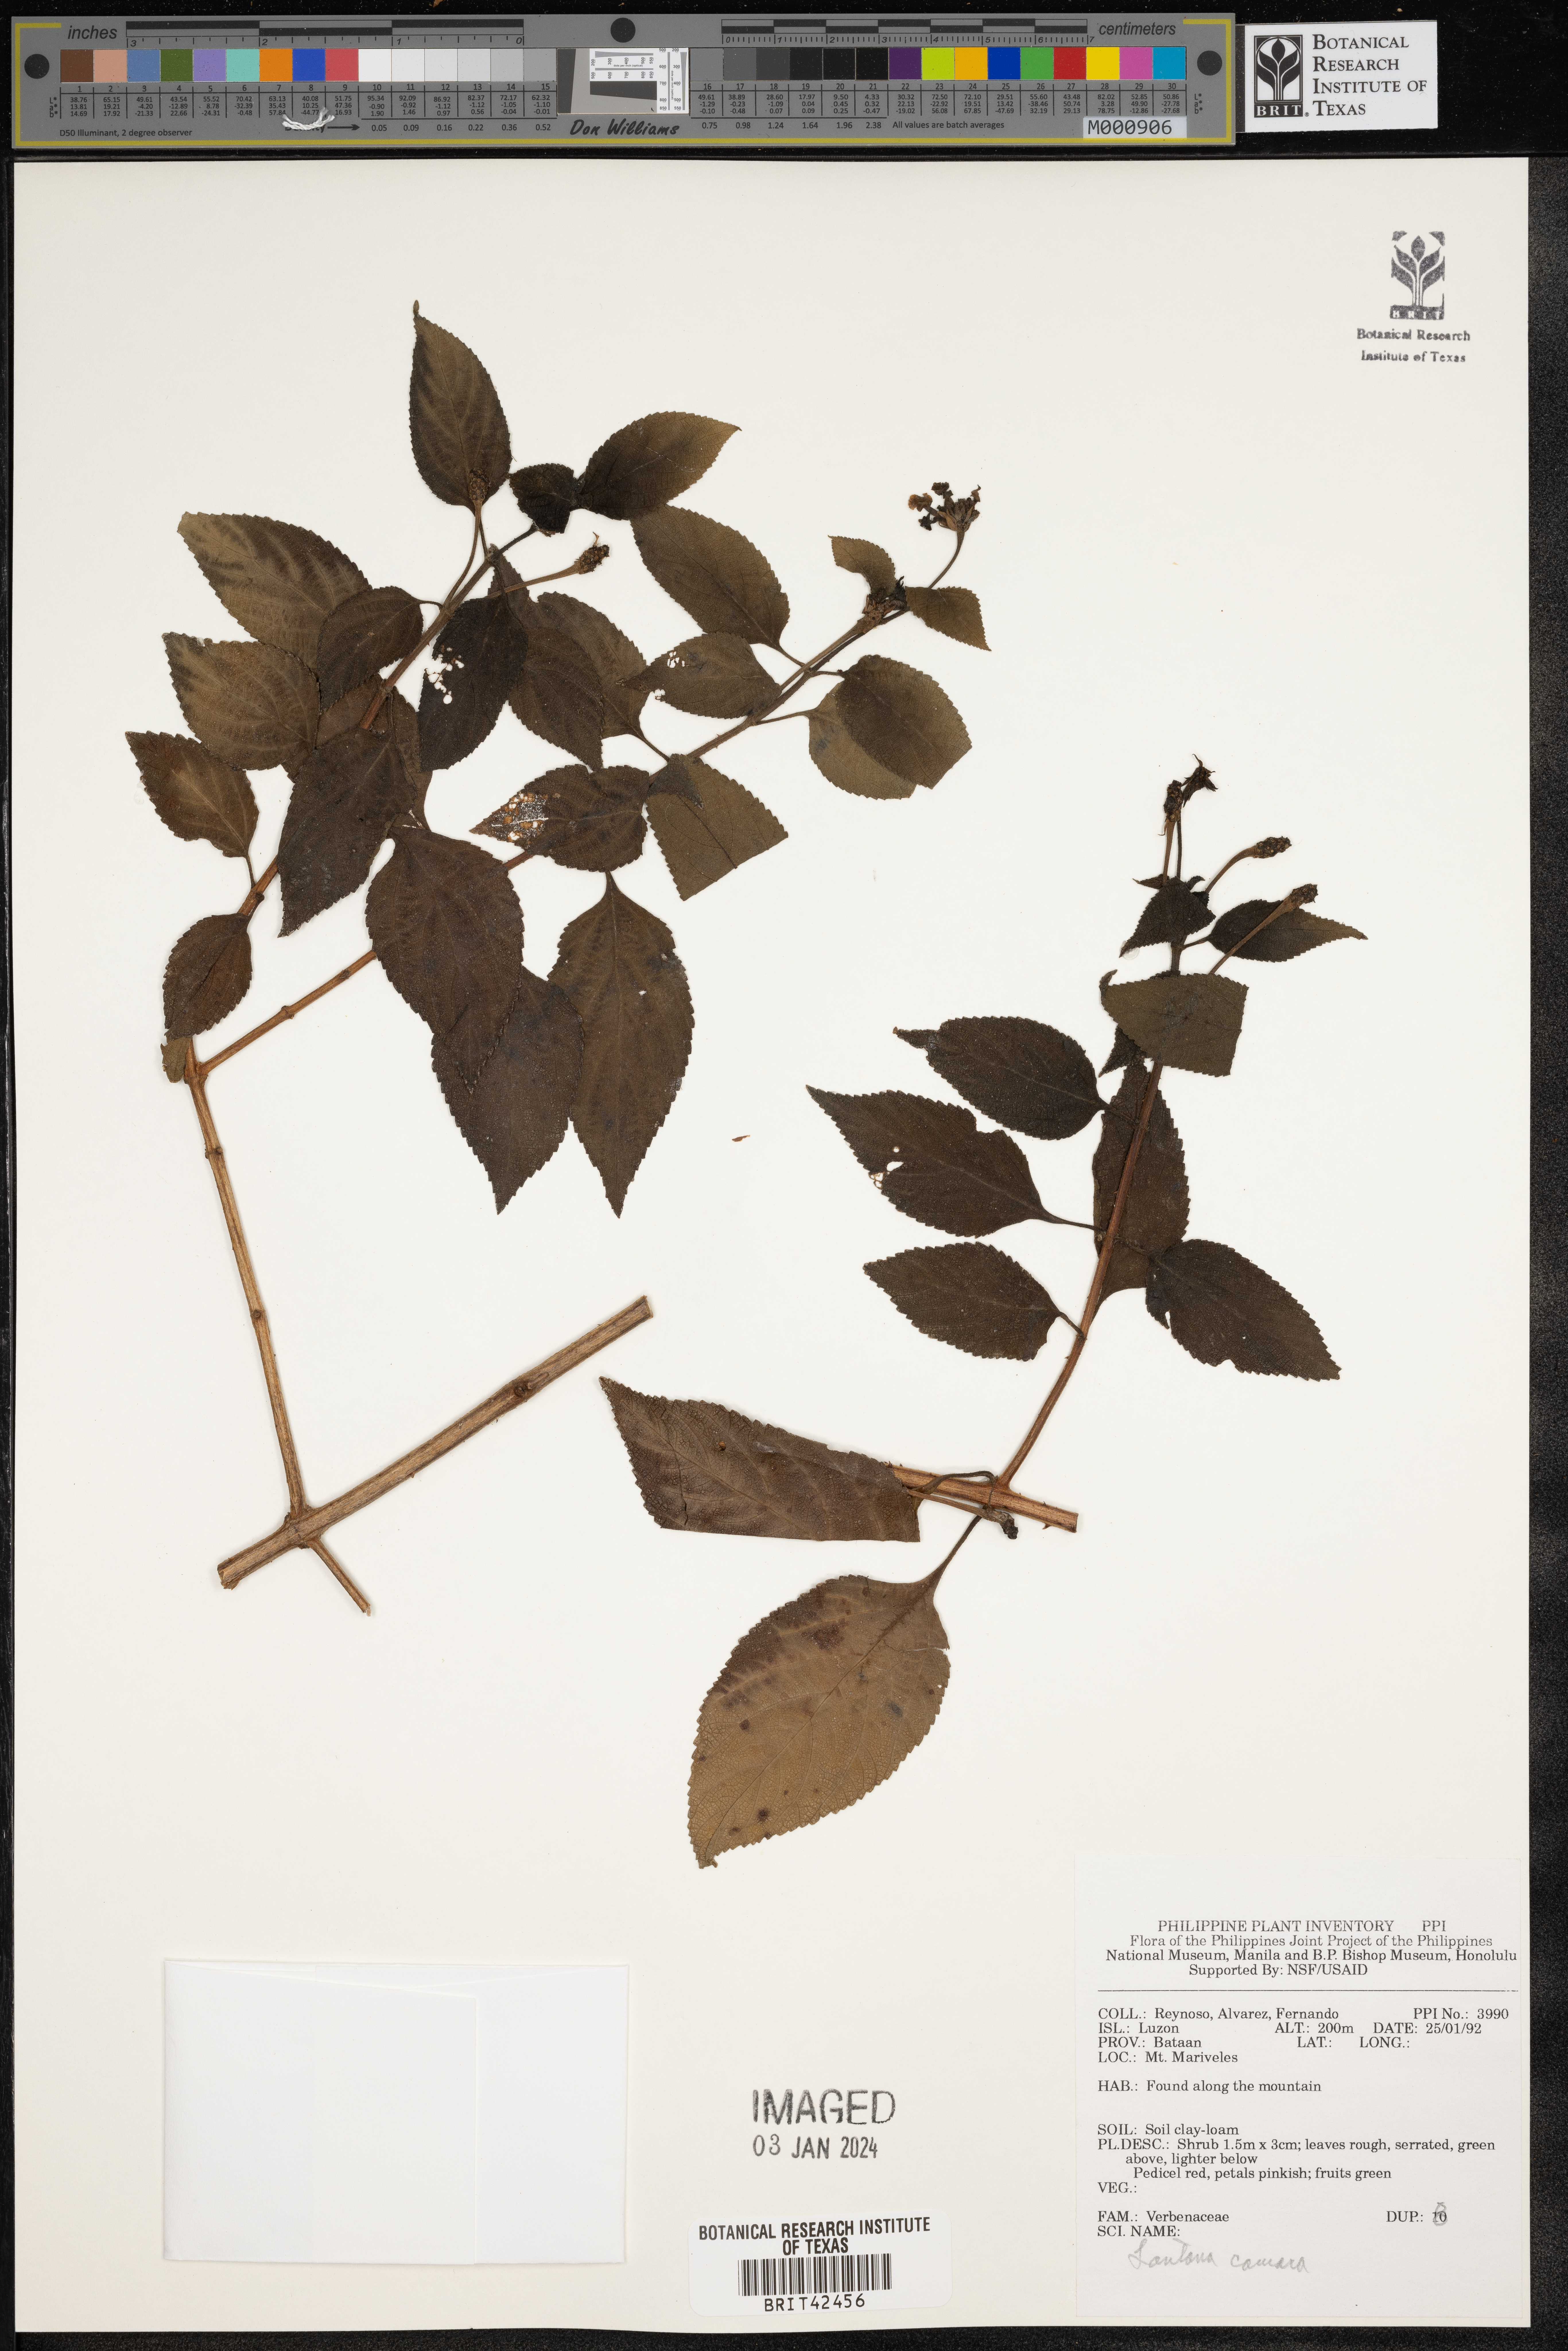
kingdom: Plantae
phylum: Tracheophyta
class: Magnoliopsida
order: Lamiales
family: Verbenaceae
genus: Lantana
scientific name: Lantana camara
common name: Lantana
